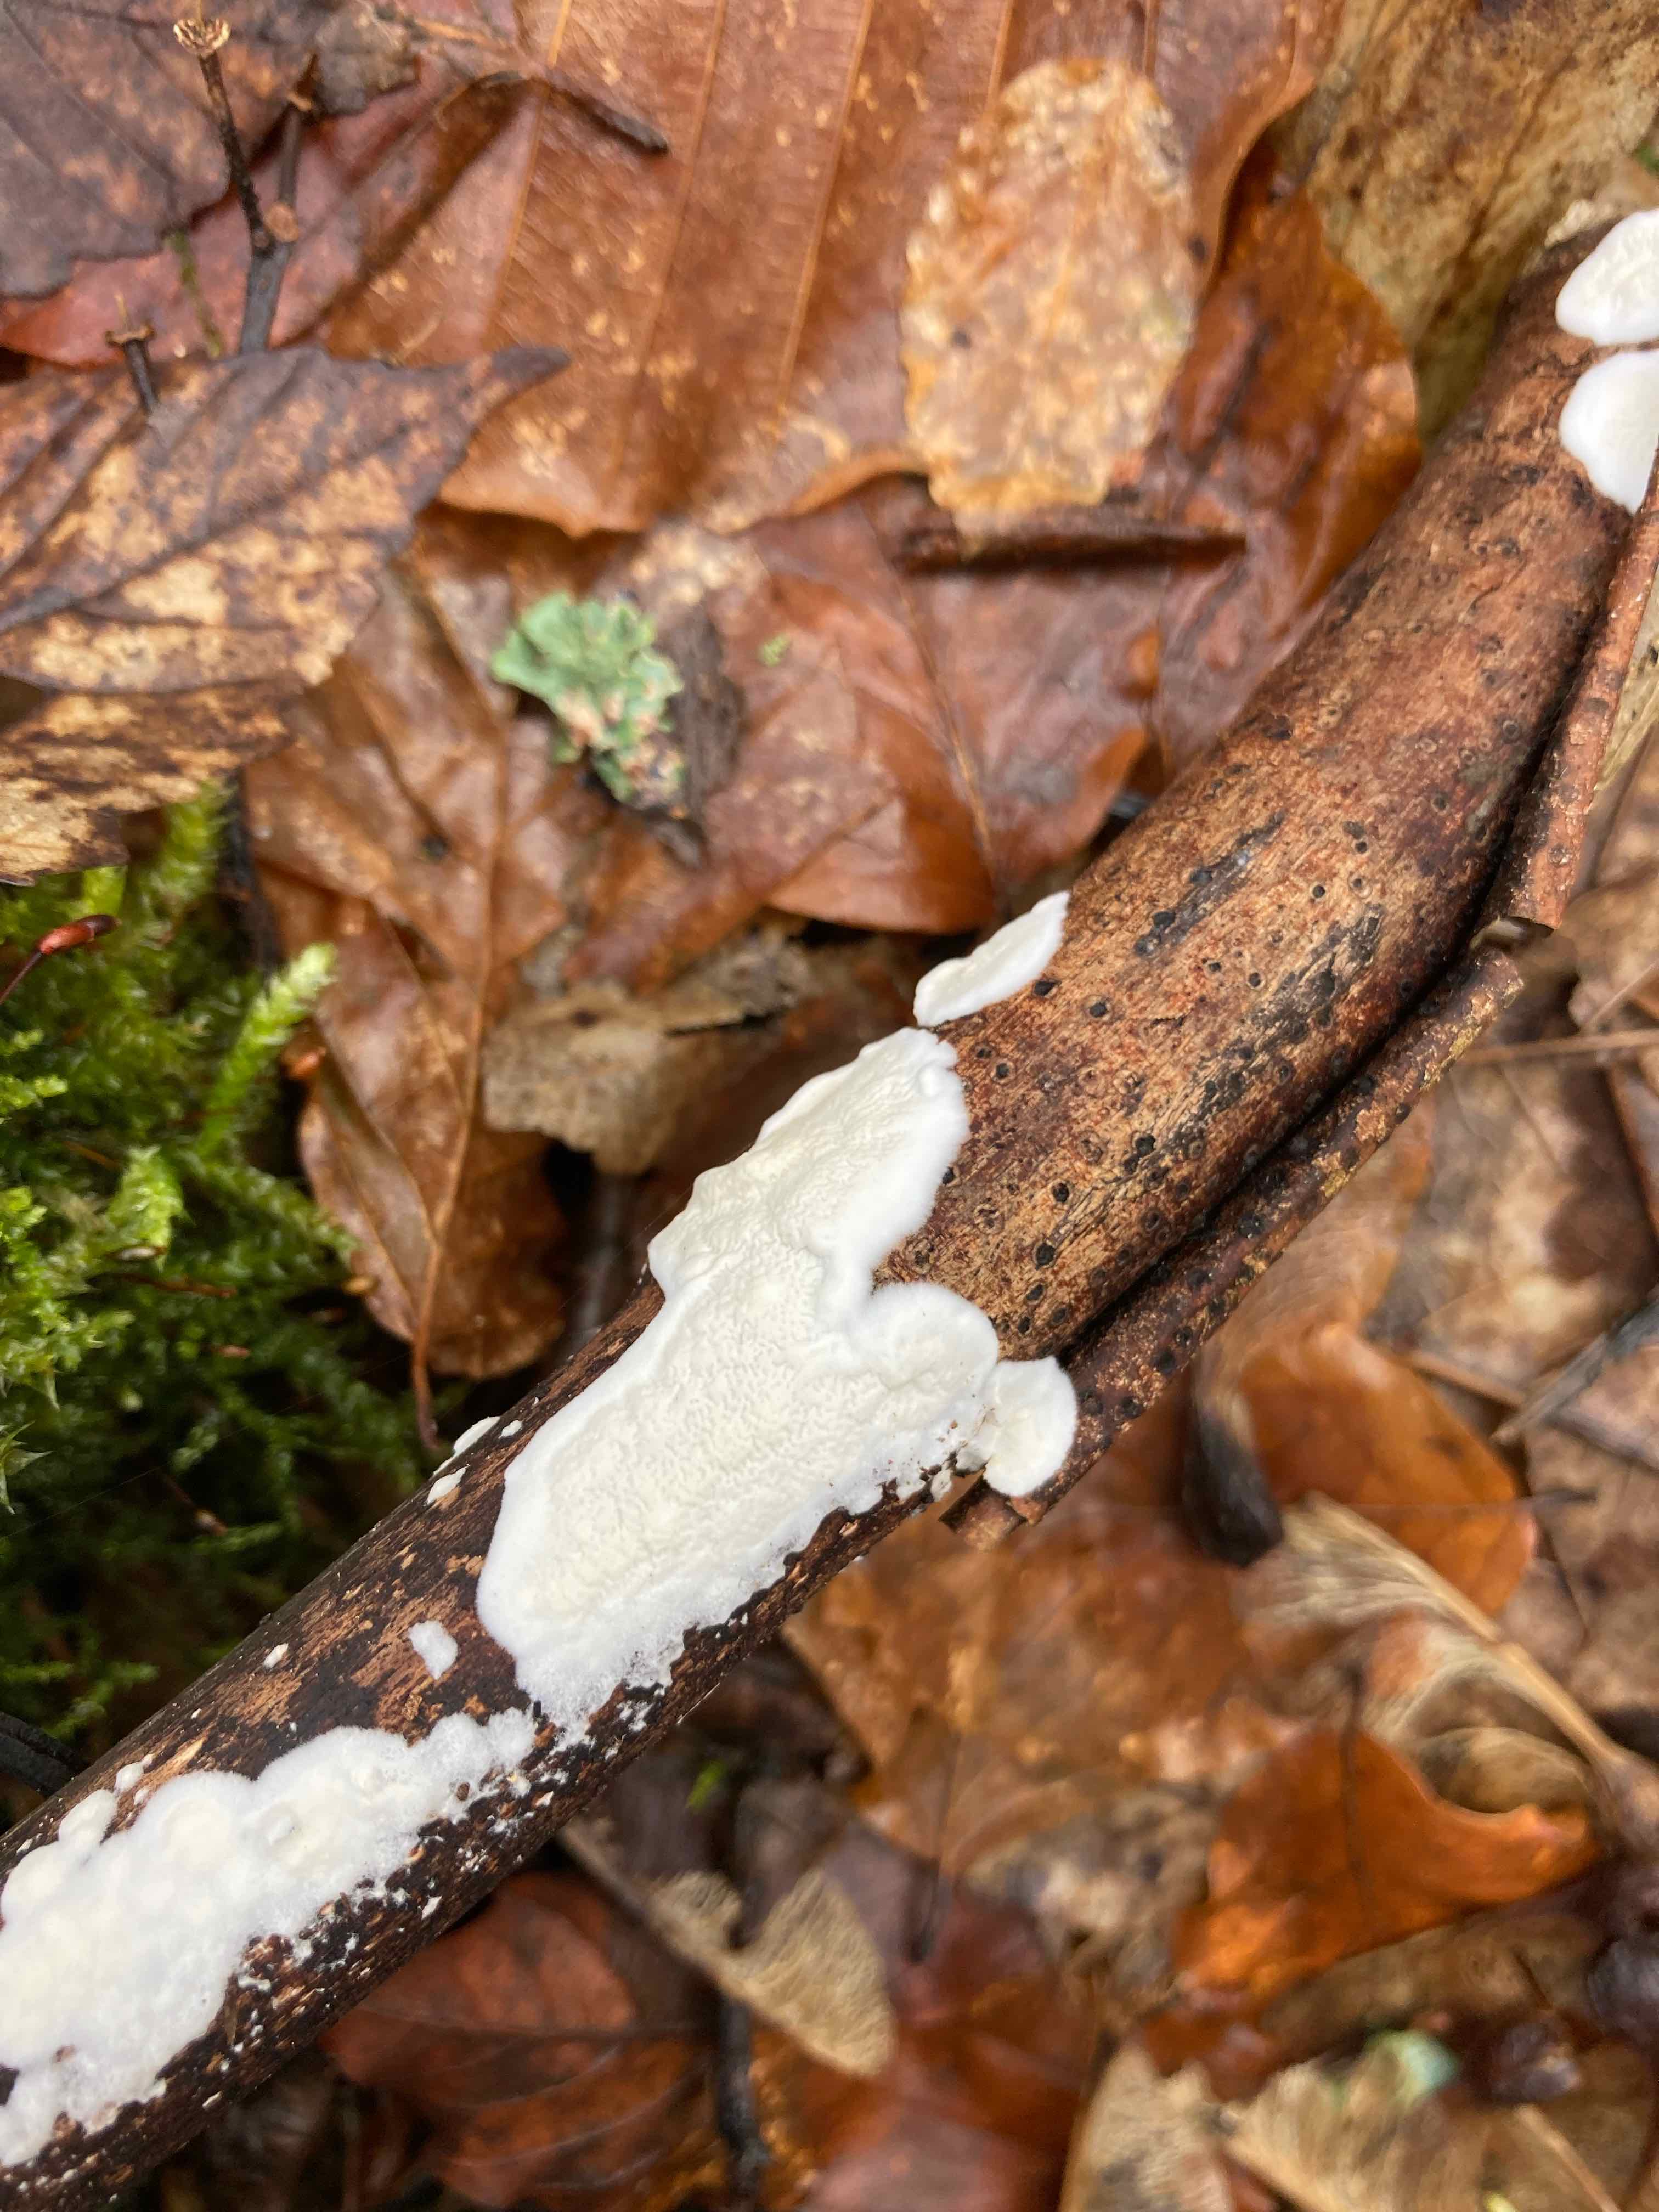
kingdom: Fungi
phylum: Basidiomycota
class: Agaricomycetes
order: Polyporales
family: Irpicaceae
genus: Byssomerulius
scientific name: Byssomerulius corium
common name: læder-åresvamp
